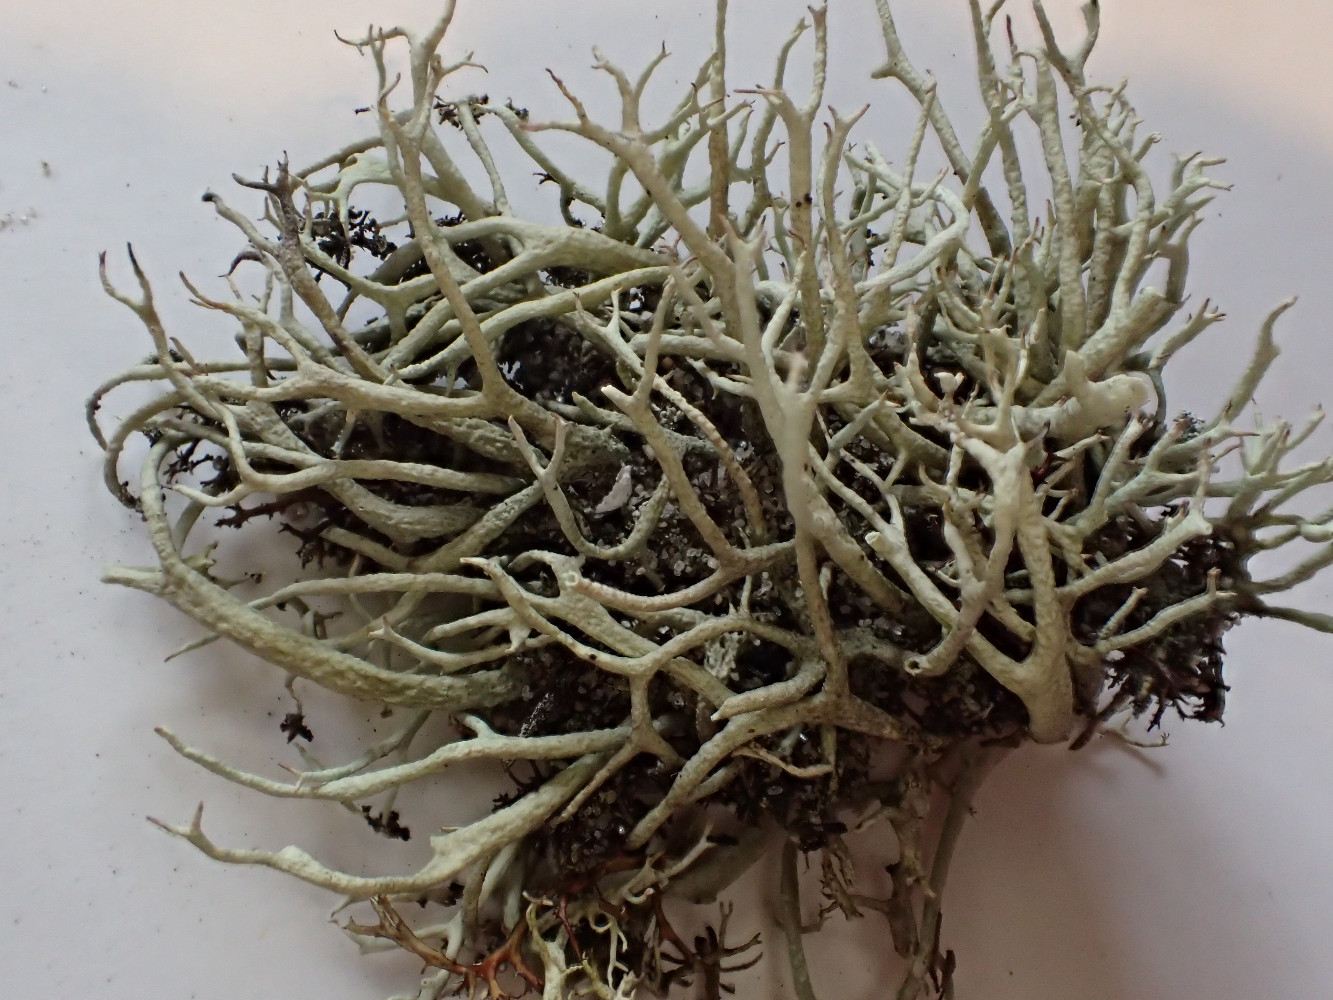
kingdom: Fungi
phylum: Ascomycota
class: Lecanoromycetes
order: Lecanorales
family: Cladoniaceae
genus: Cladonia
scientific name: Cladonia zopfii
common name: klit-bægerlav
